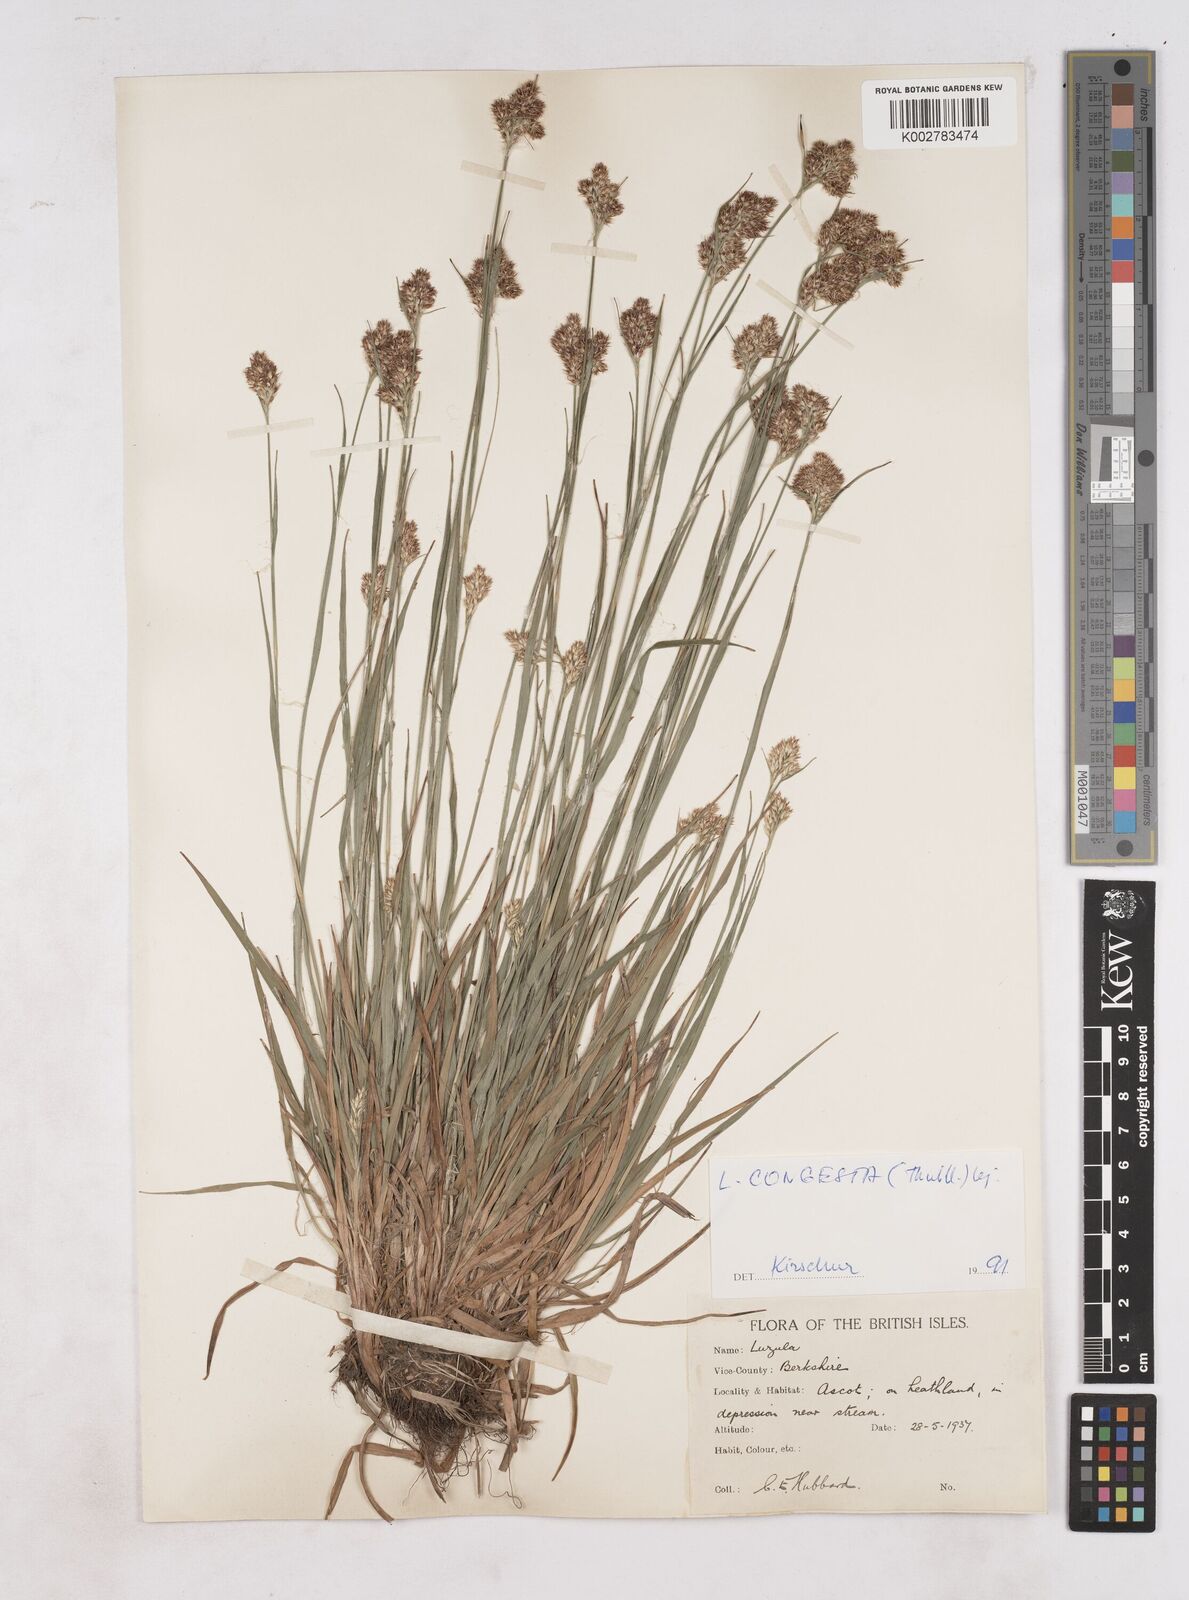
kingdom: Plantae
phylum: Tracheophyta
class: Liliopsida
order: Poales
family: Juncaceae
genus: Luzula
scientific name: Luzula campestris
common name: Field wood-rush
